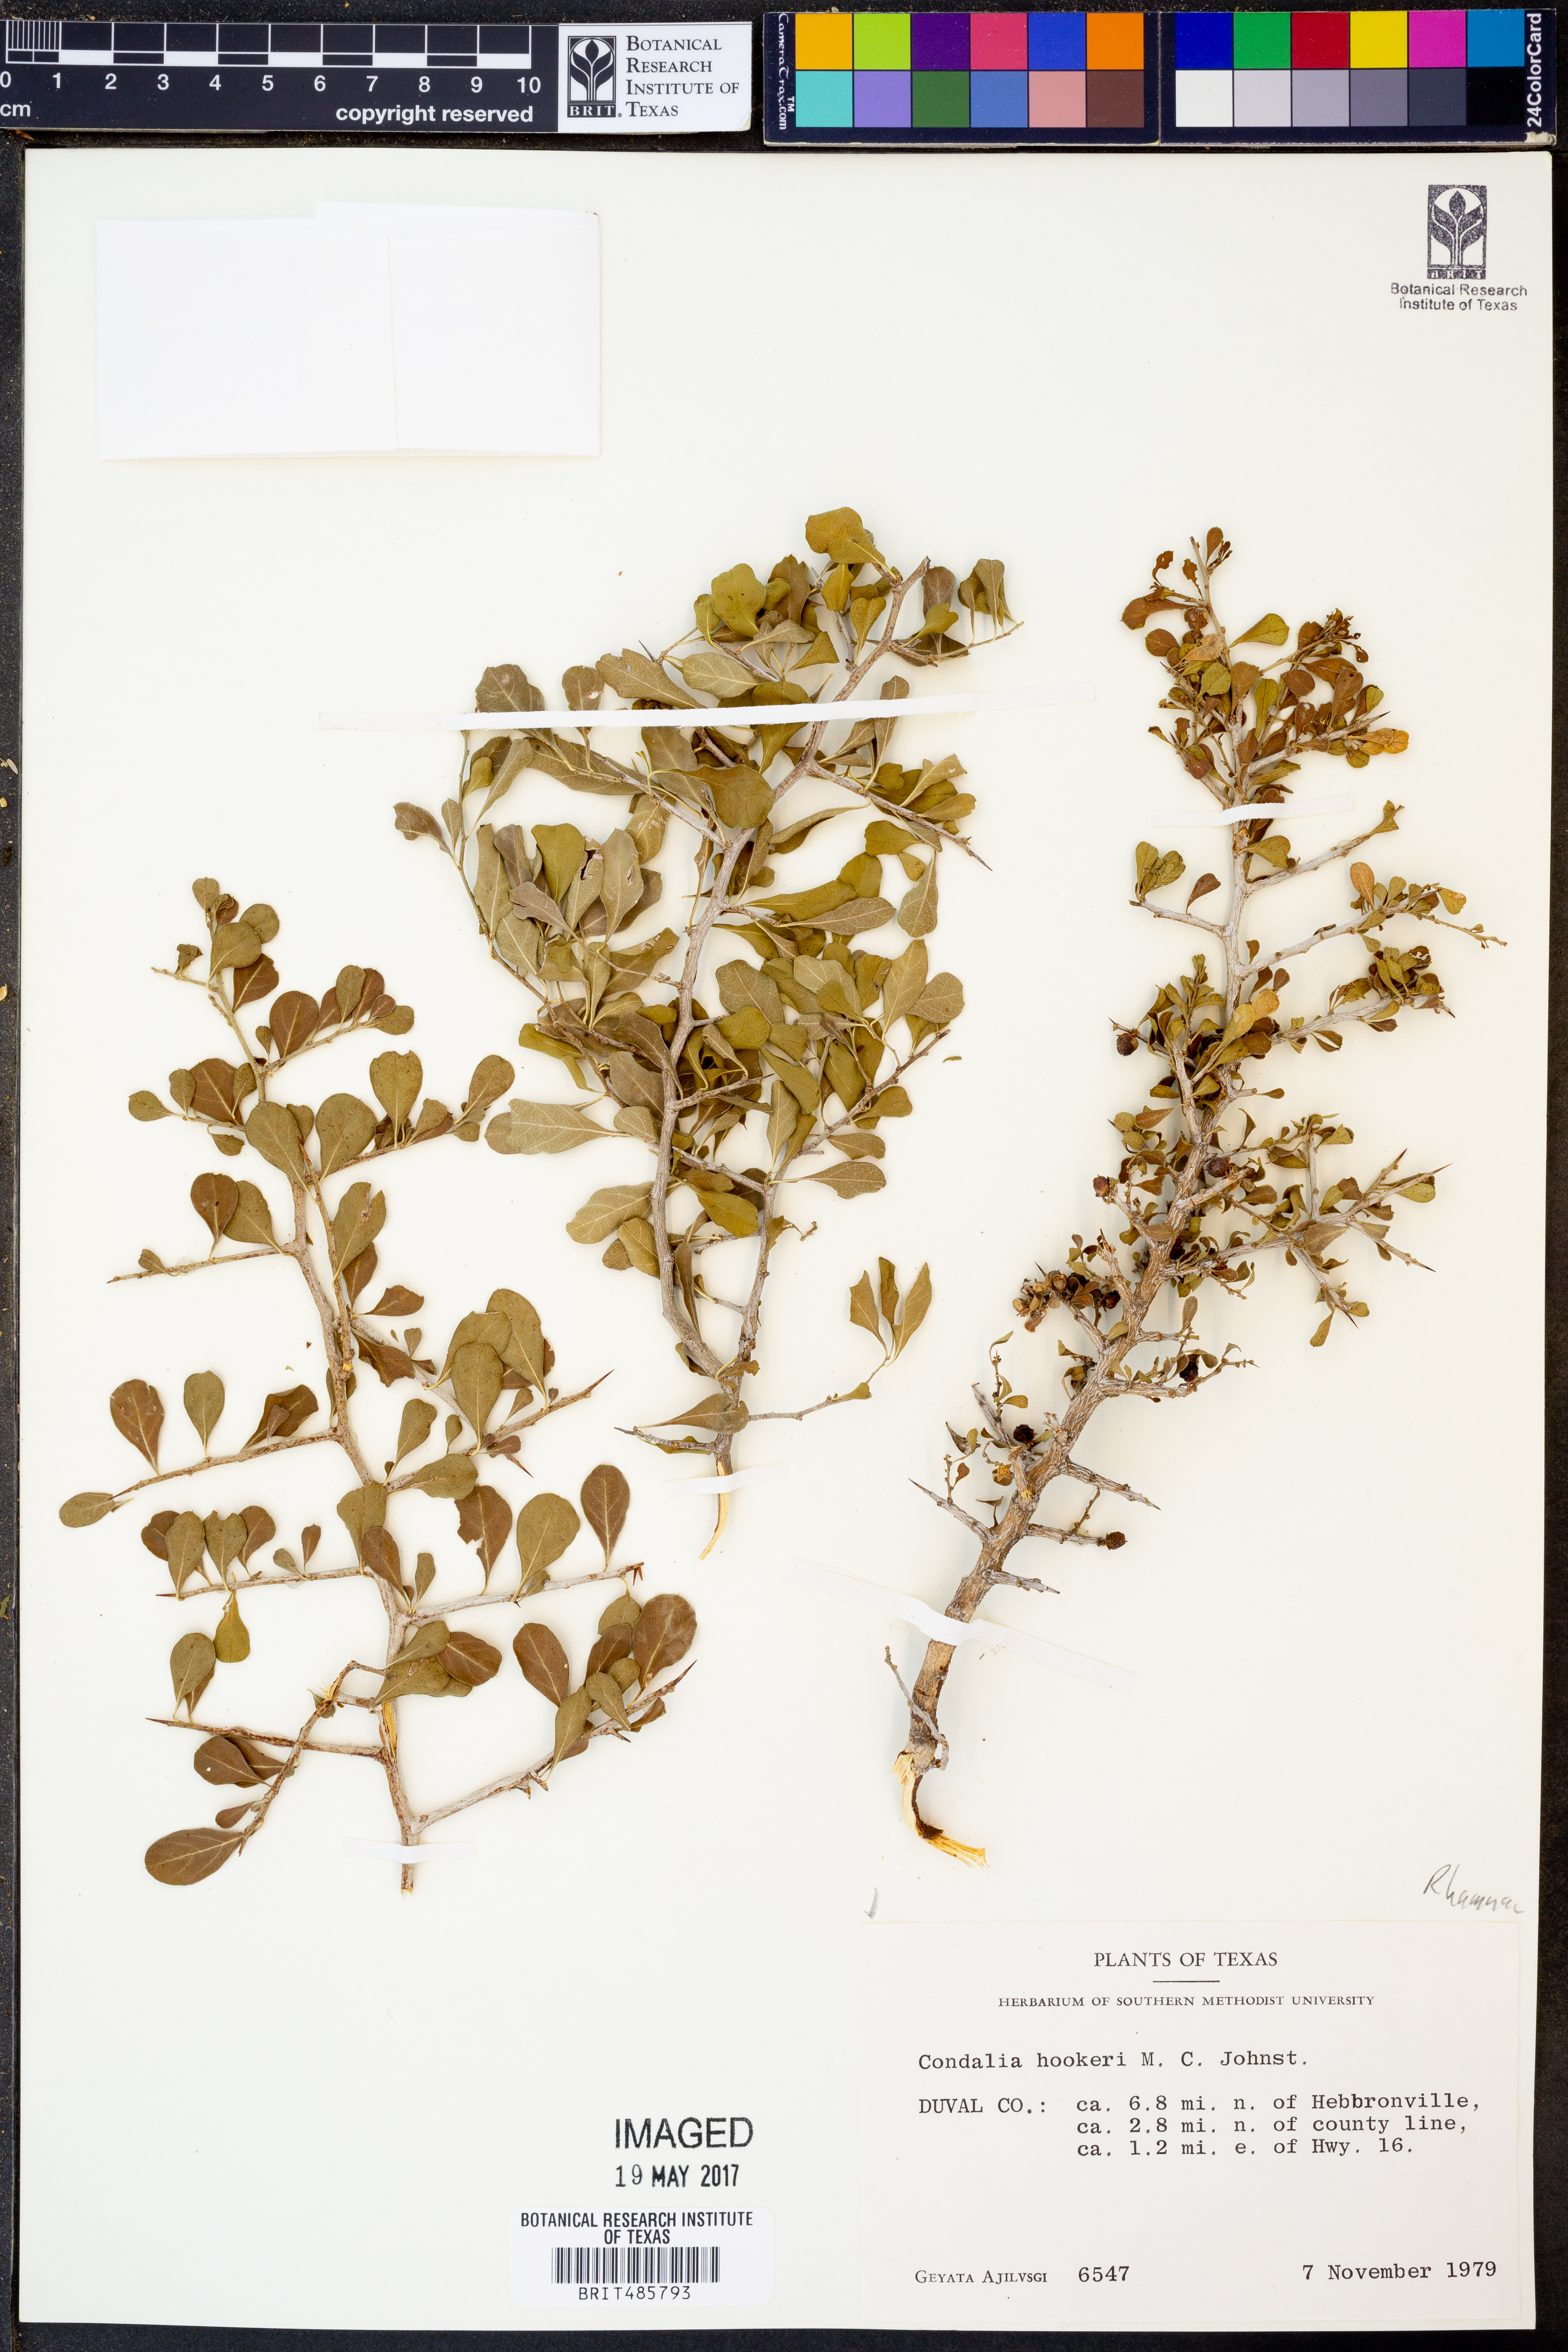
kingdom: Plantae
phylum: Tracheophyta
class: Magnoliopsida
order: Rosales
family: Rhamnaceae
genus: Condalia
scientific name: Condalia hookeri
